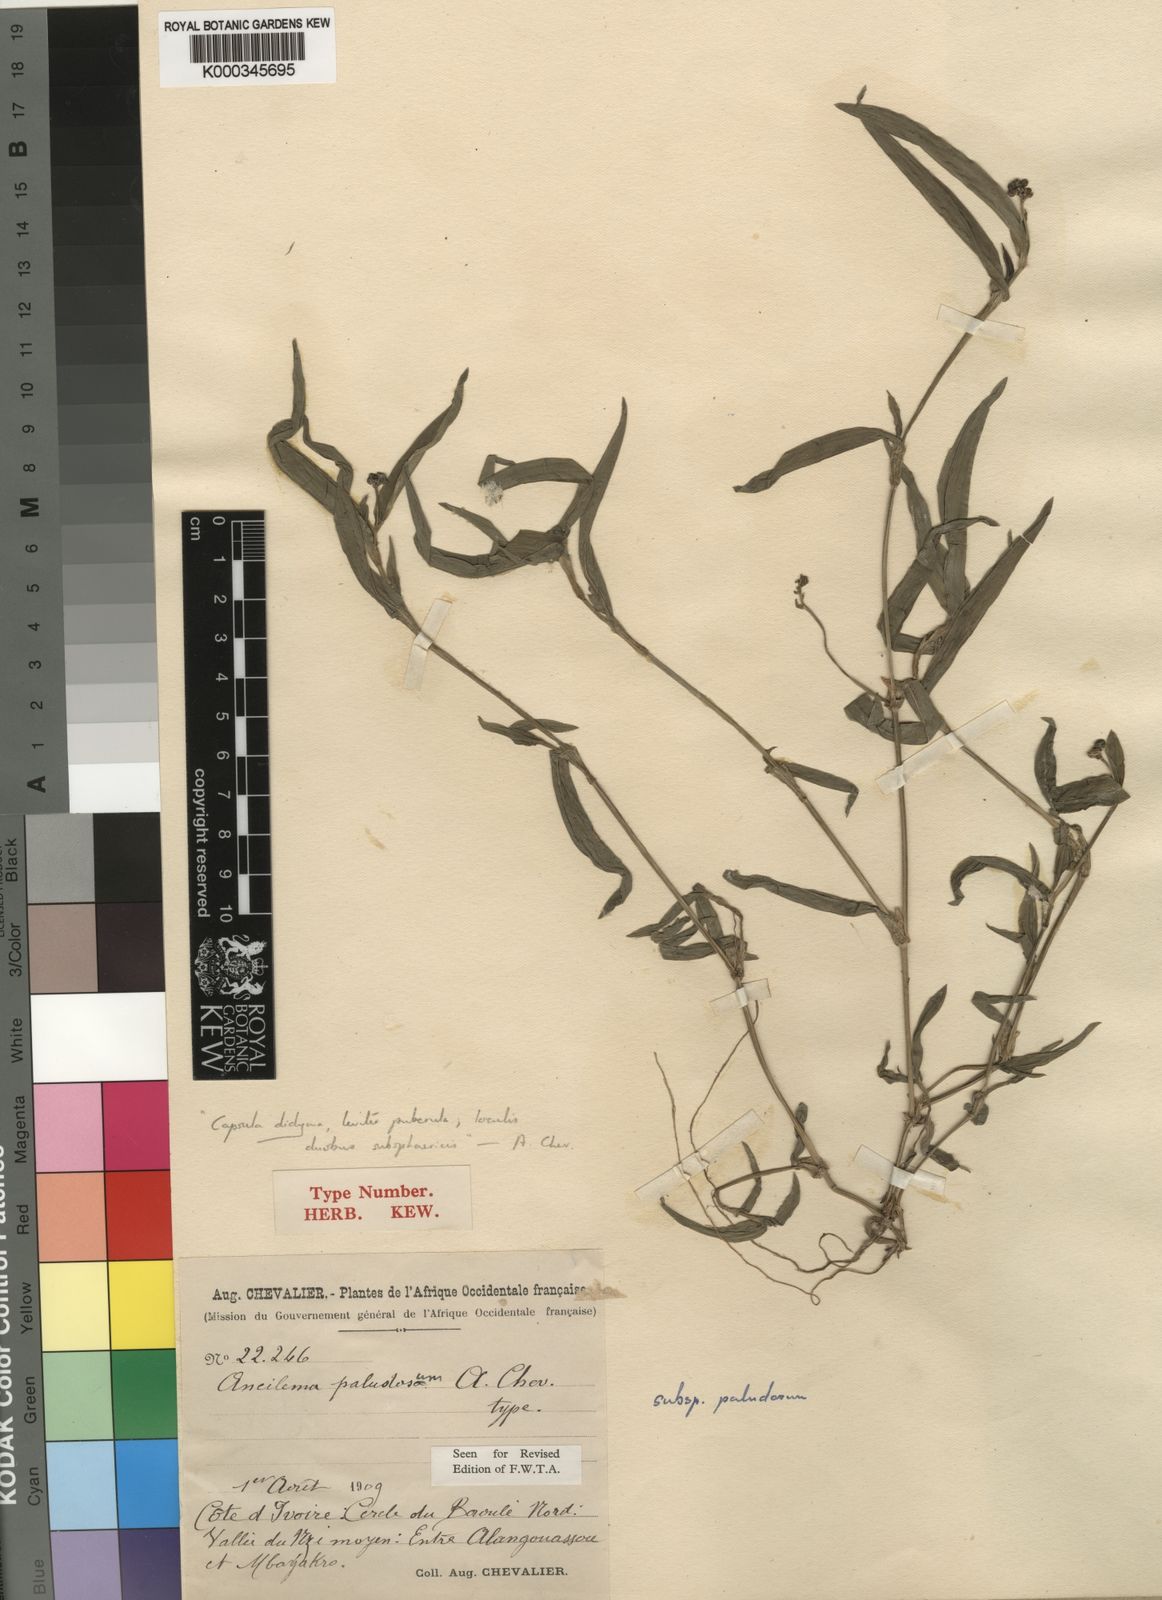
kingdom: Plantae
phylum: Tracheophyta
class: Liliopsida
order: Commelinales
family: Commelinaceae
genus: Aneilema
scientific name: Aneilema paludosum
